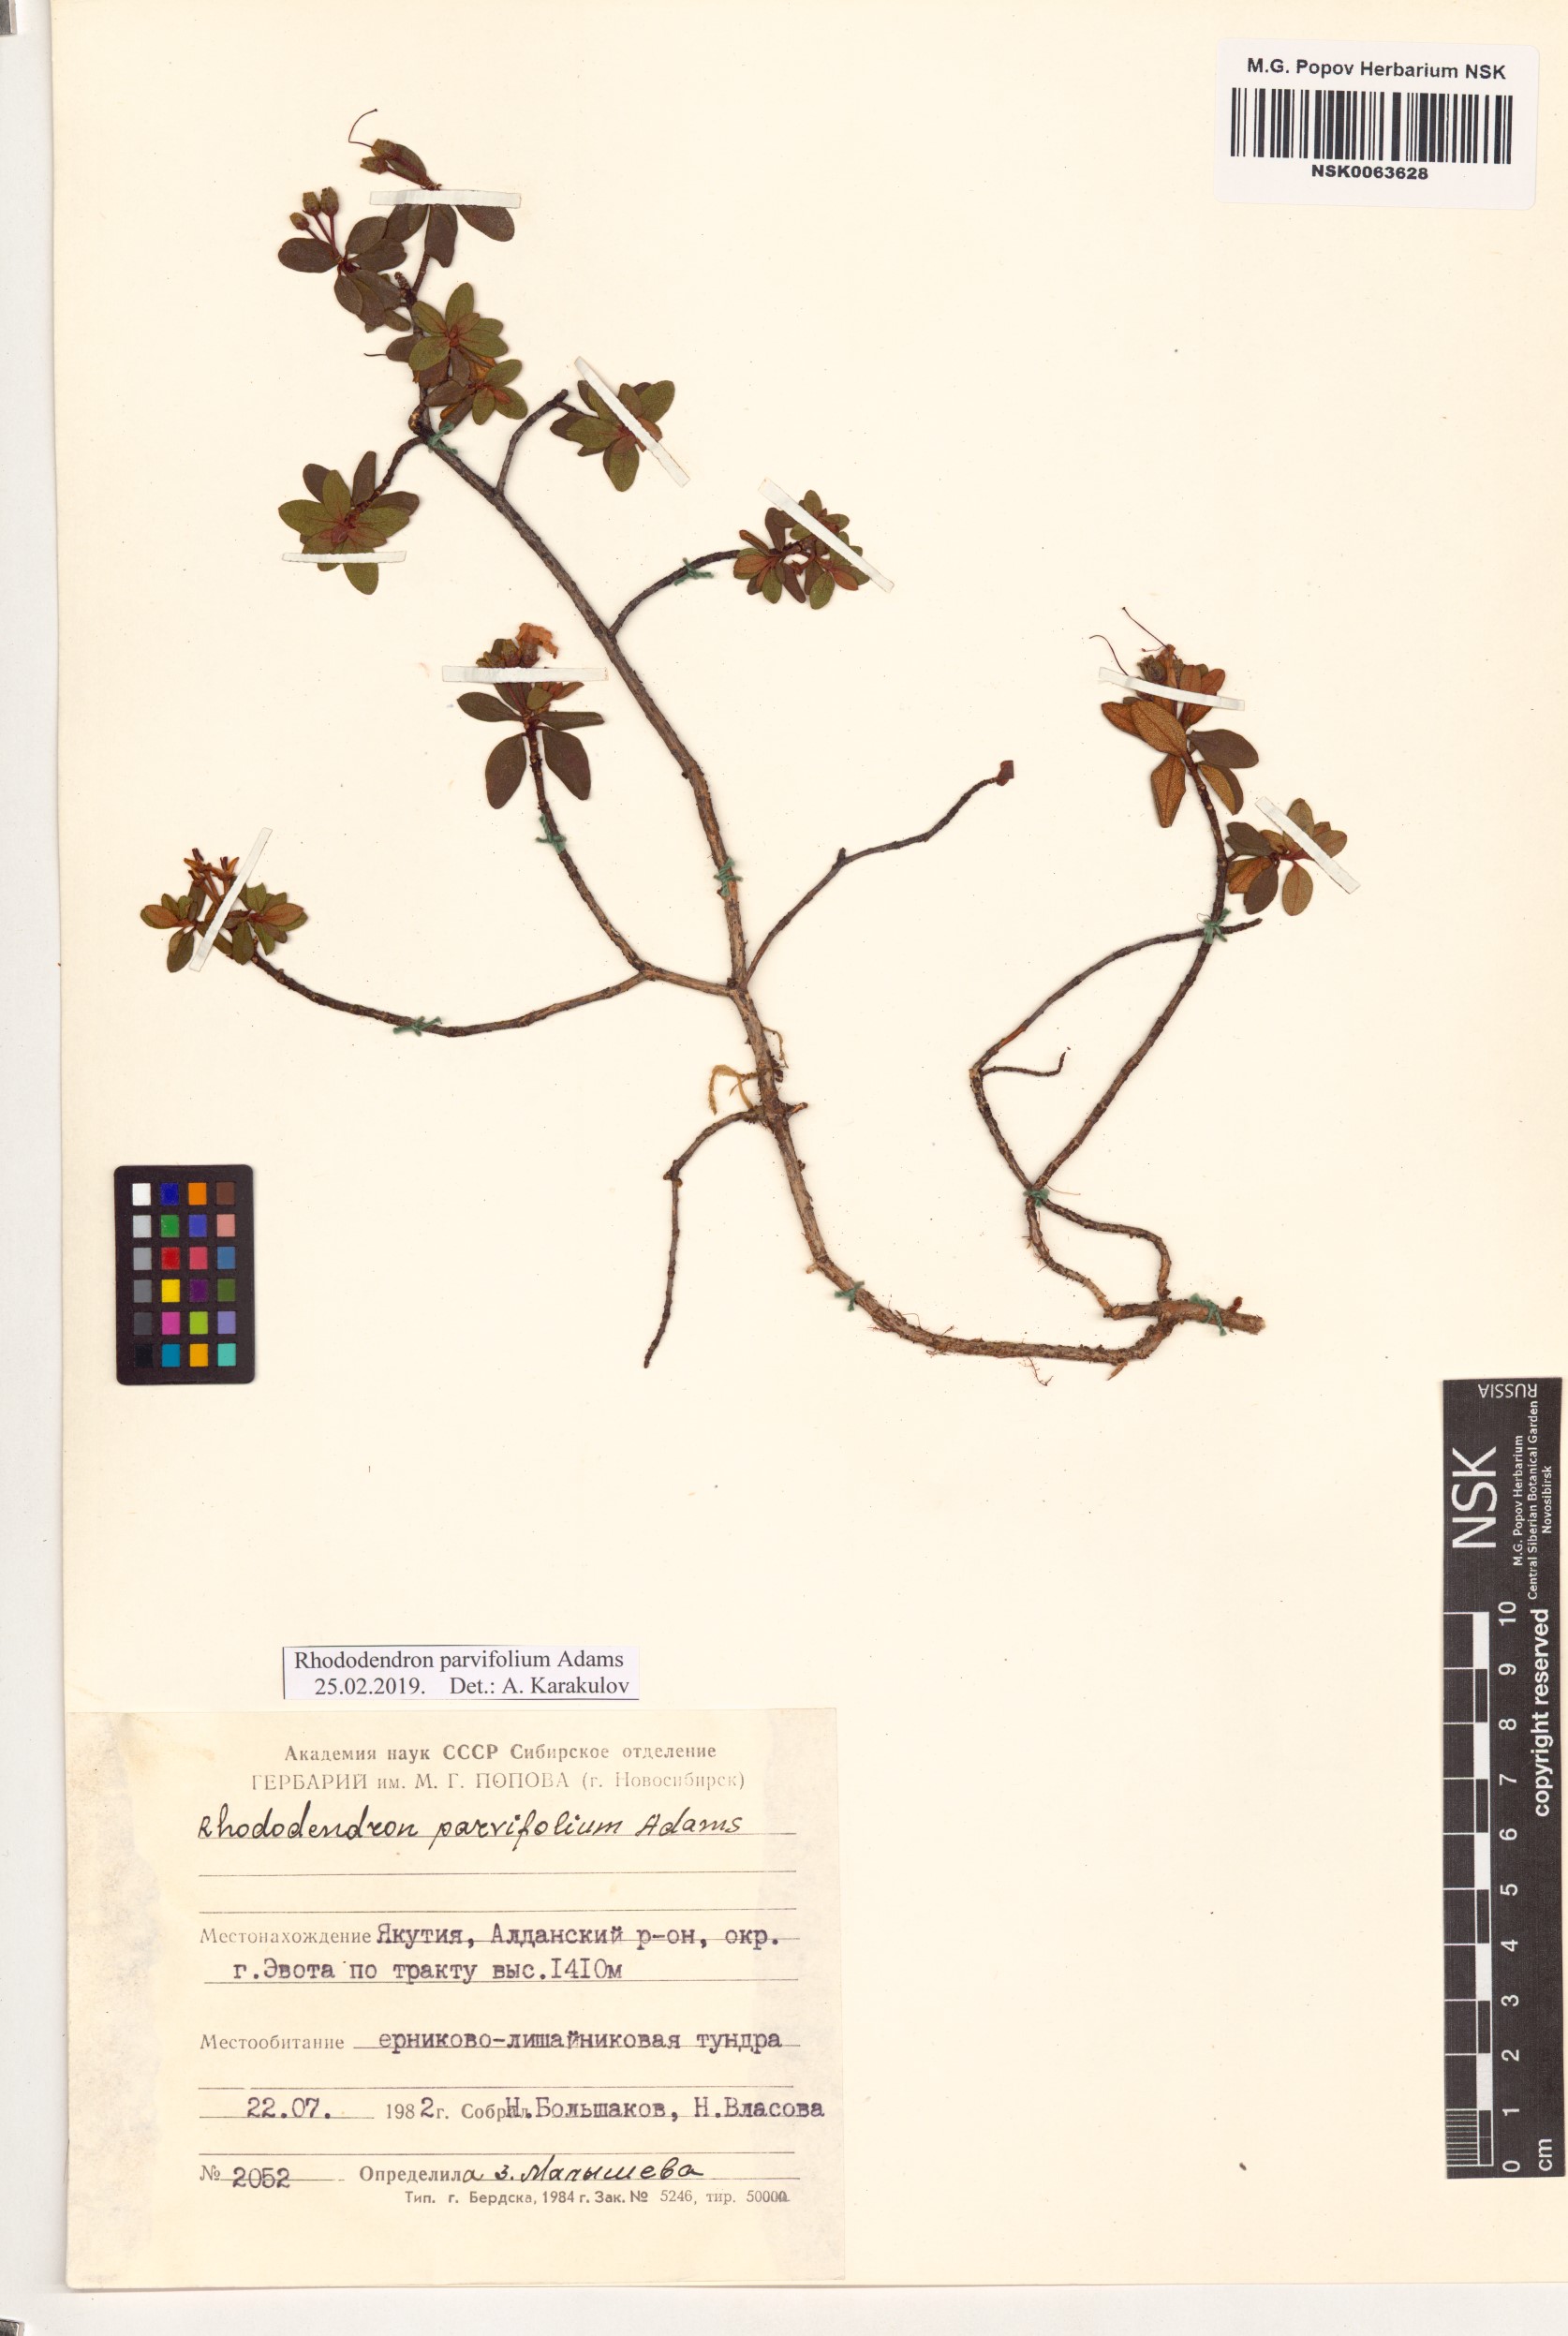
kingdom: Plantae
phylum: Tracheophyta
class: Magnoliopsida
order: Ericales
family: Ericaceae
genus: Rhododendron
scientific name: Rhododendron parvifolium
